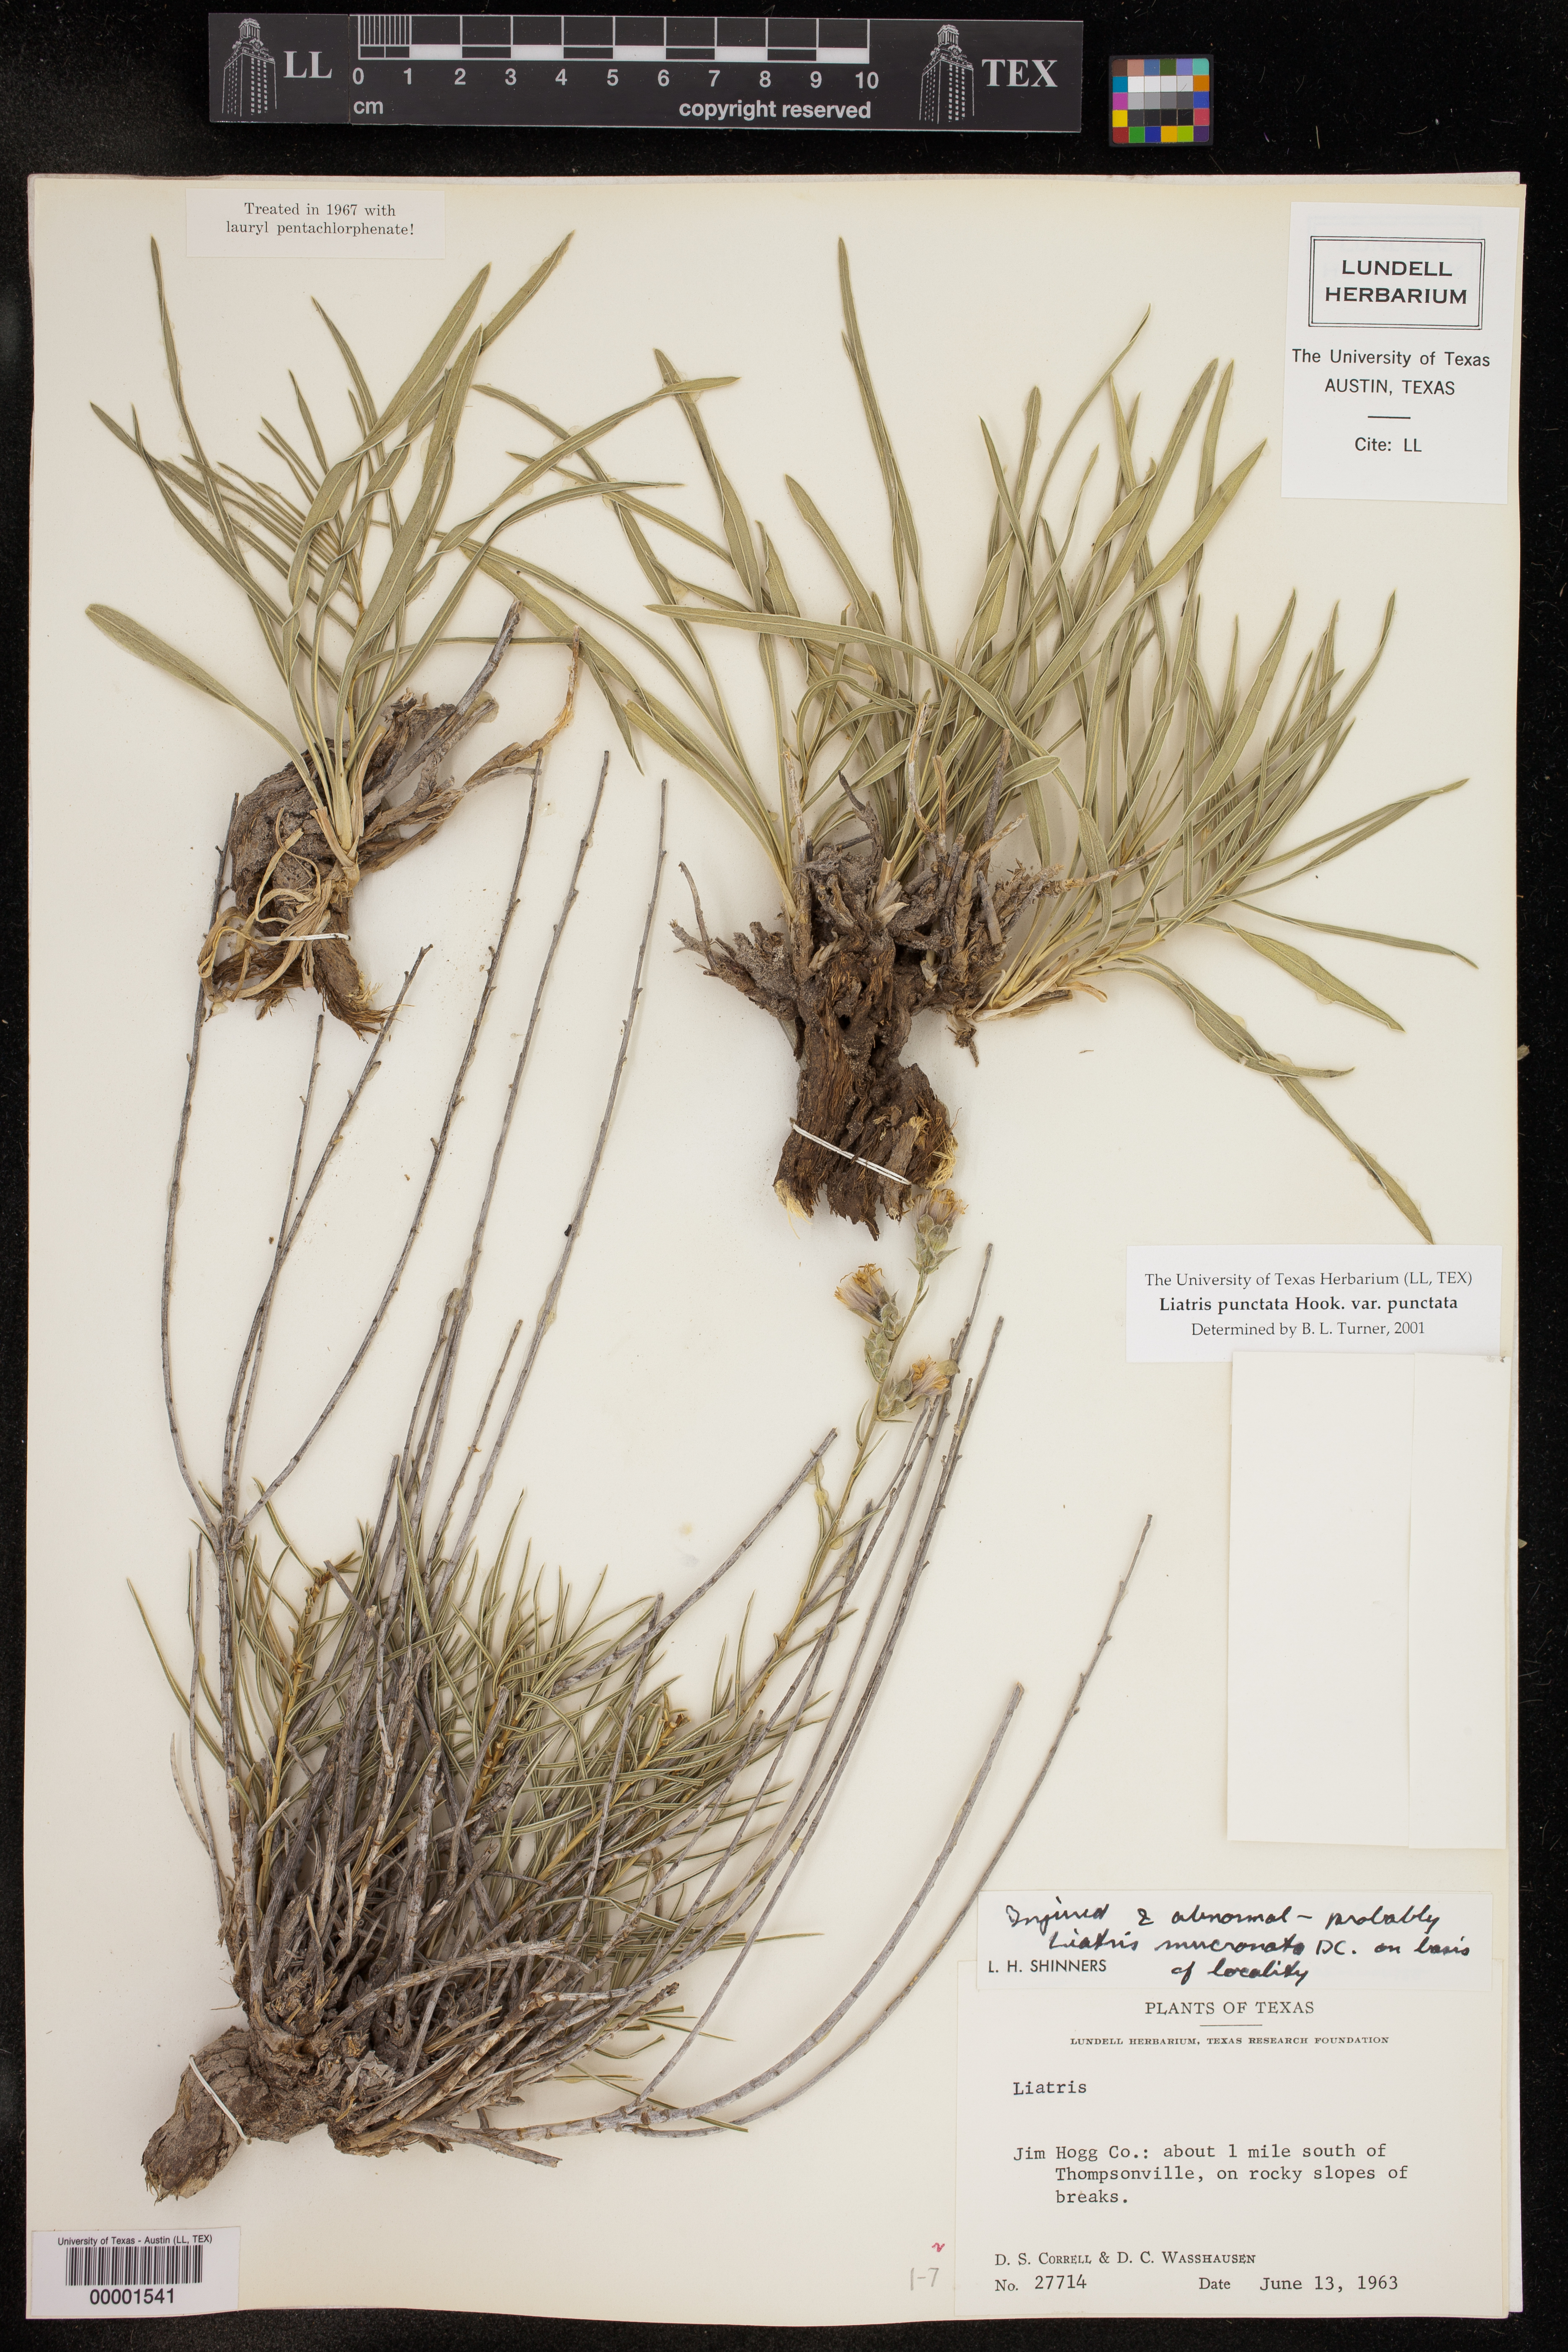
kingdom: Plantae
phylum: Tracheophyta
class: Magnoliopsida
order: Asterales
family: Asteraceae
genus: Liatris
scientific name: Liatris punctata
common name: Dotted gayfeather
